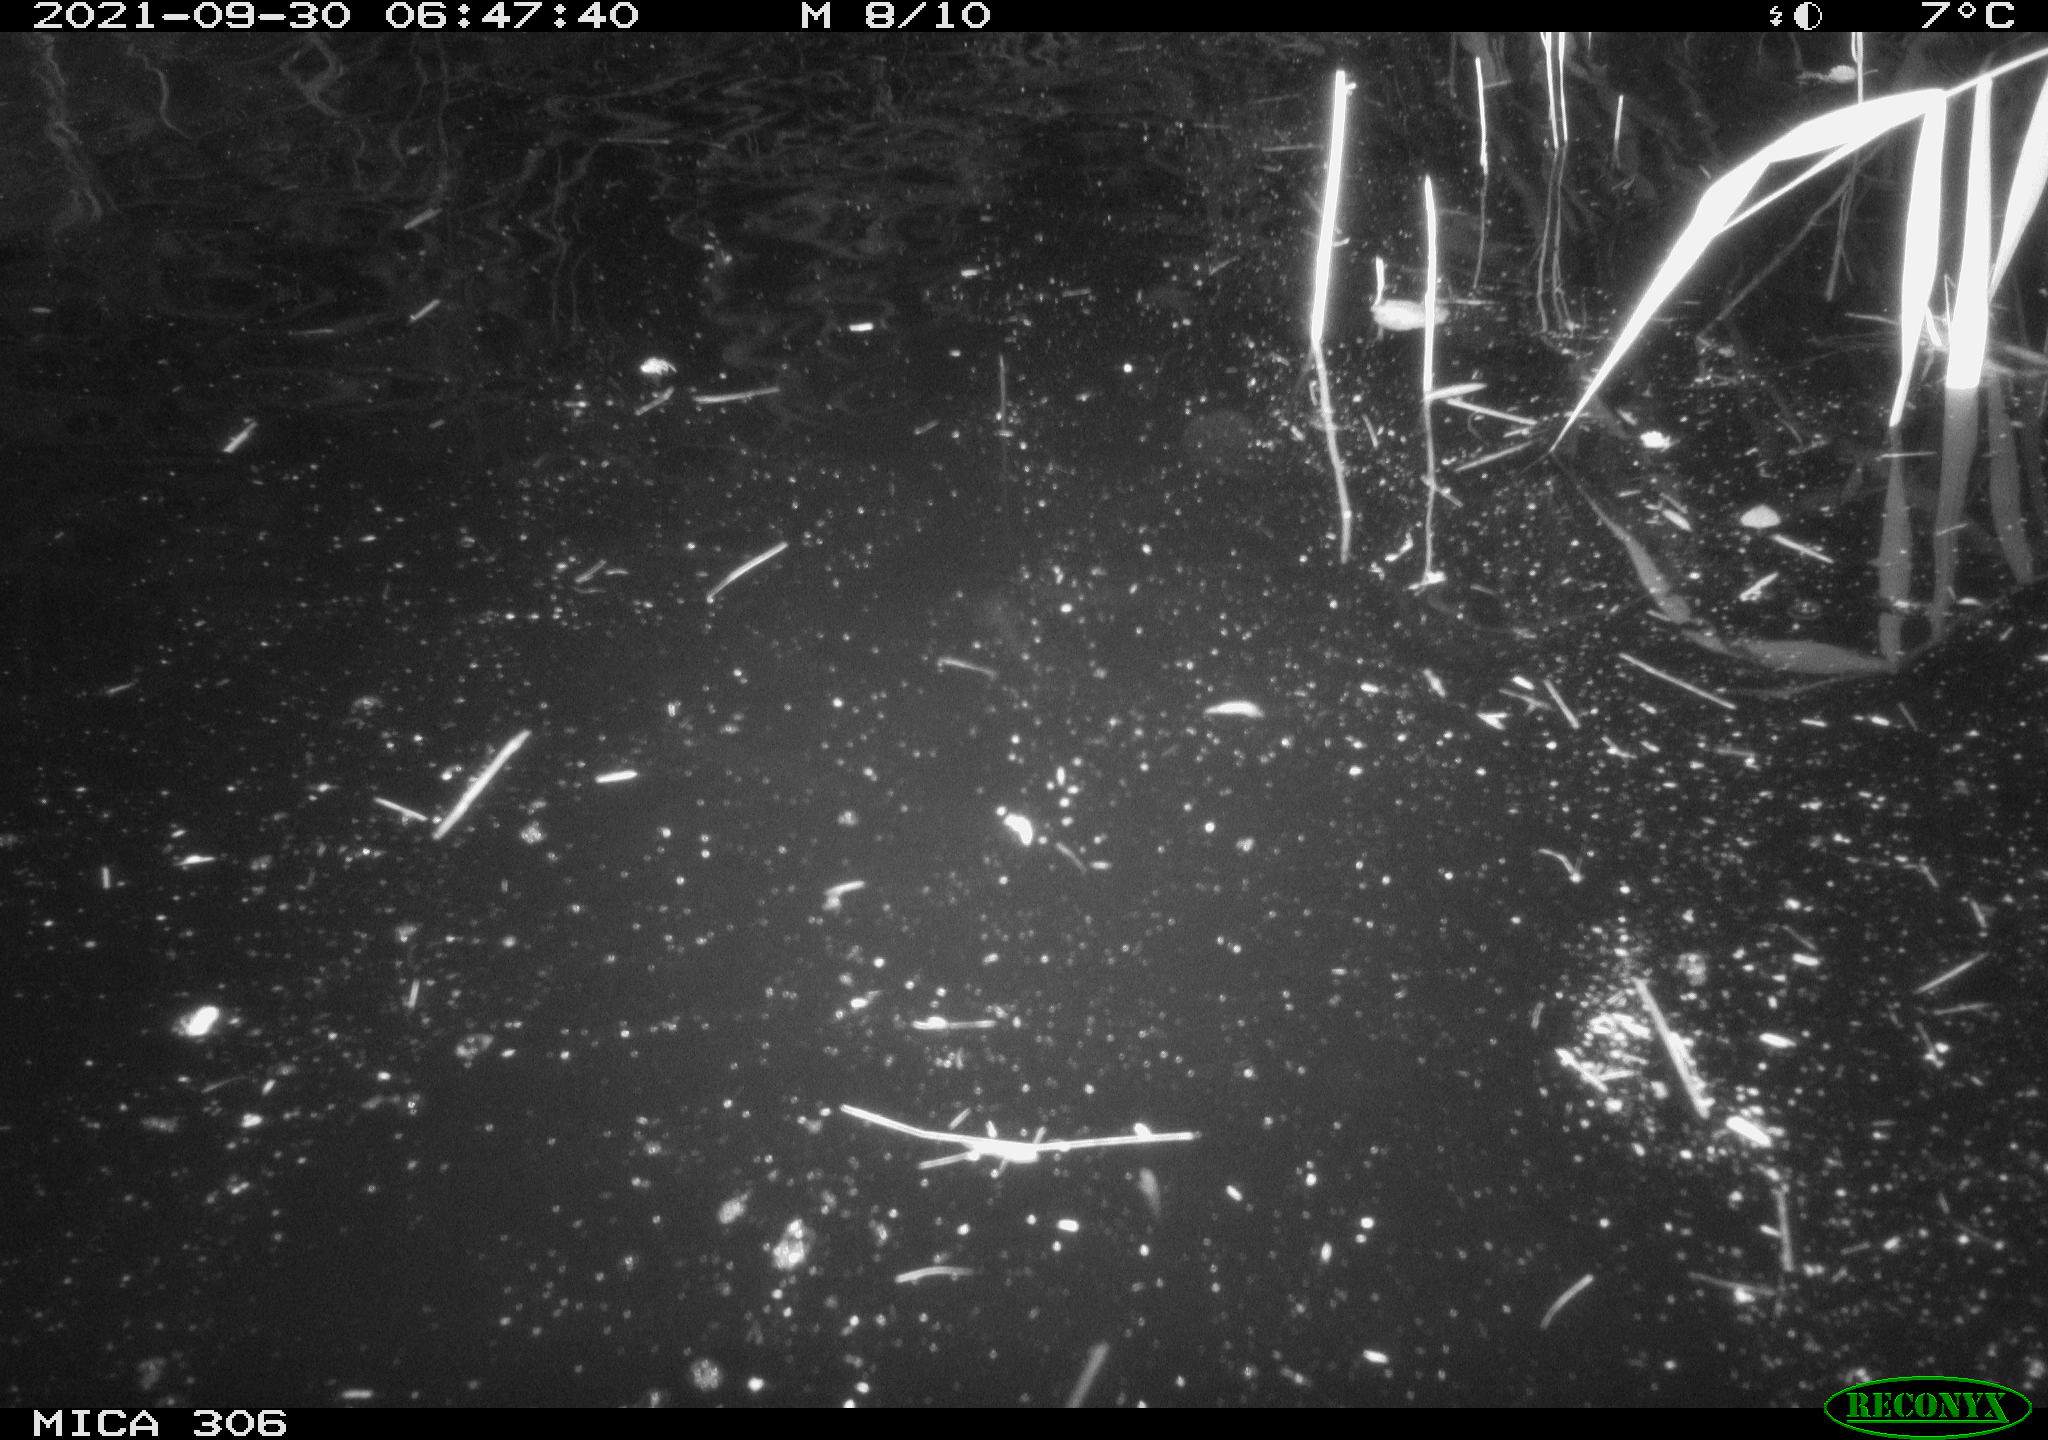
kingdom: Animalia
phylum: Chordata
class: Mammalia
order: Rodentia
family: Cricetidae
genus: Ondatra
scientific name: Ondatra zibethicus
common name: Muskrat
